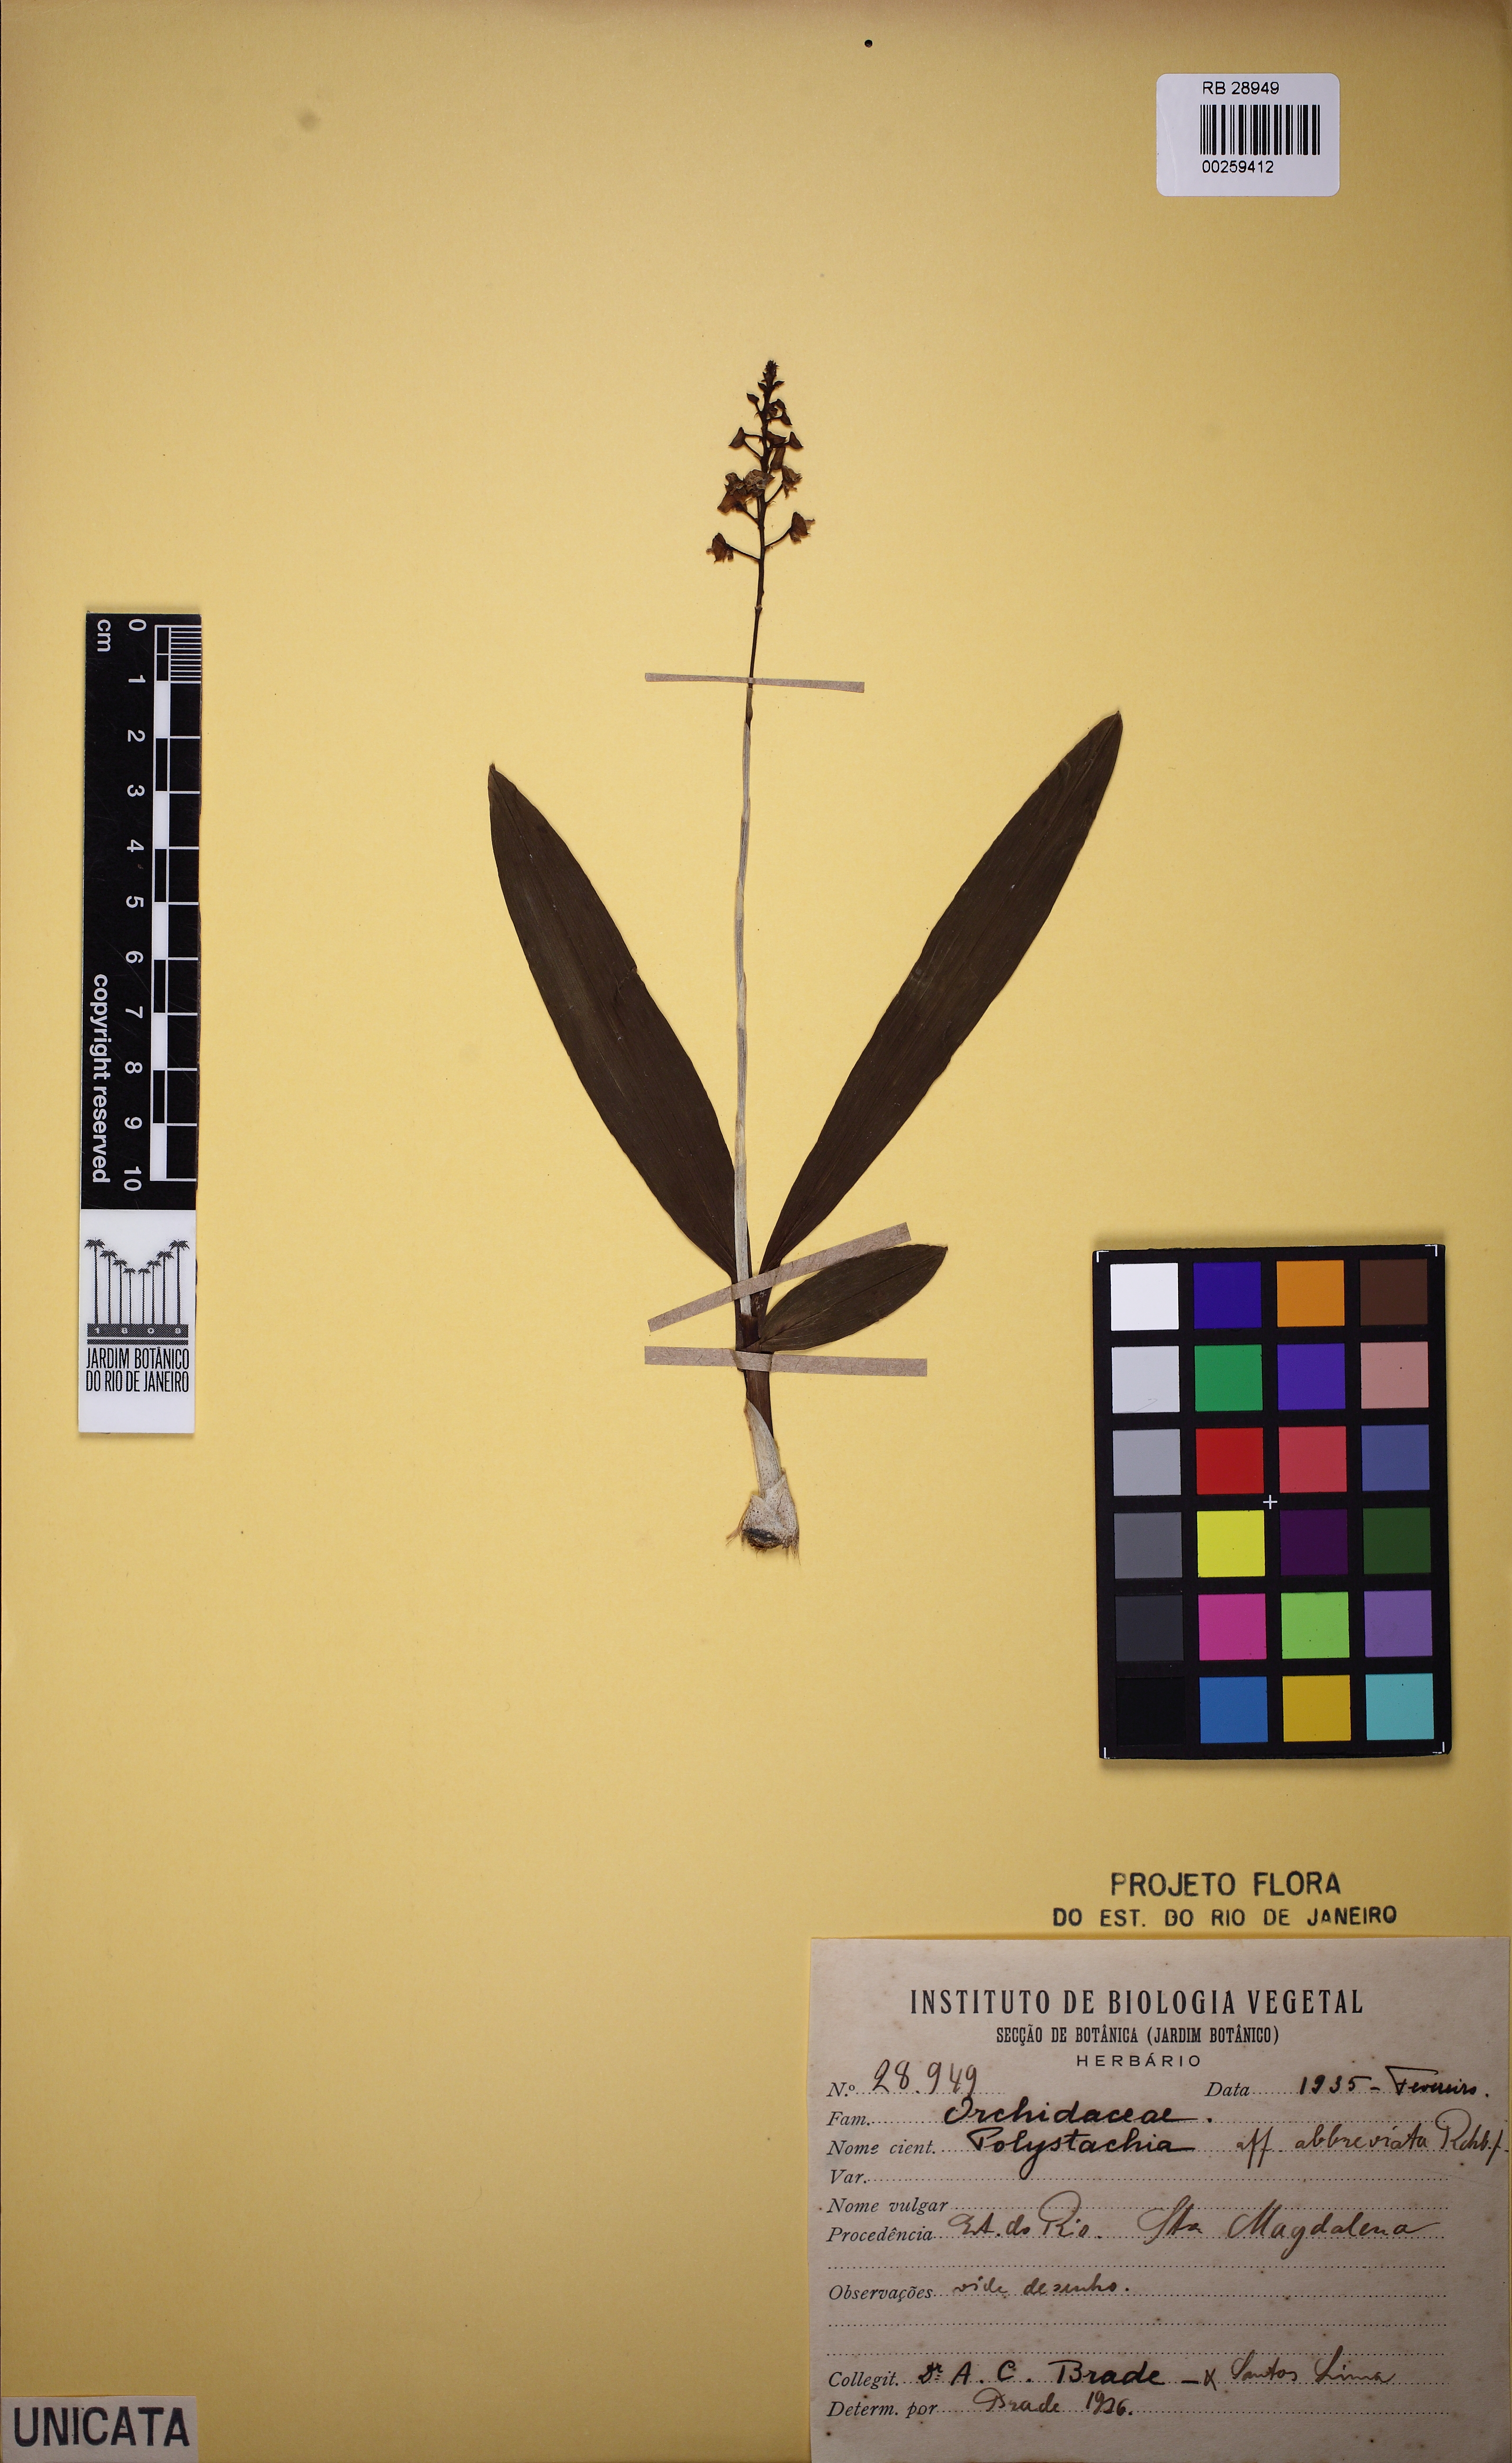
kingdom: Plantae
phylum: Tracheophyta
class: Liliopsida
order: Asparagales
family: Orchidaceae
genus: Polystachya
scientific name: Polystachya foliosa
